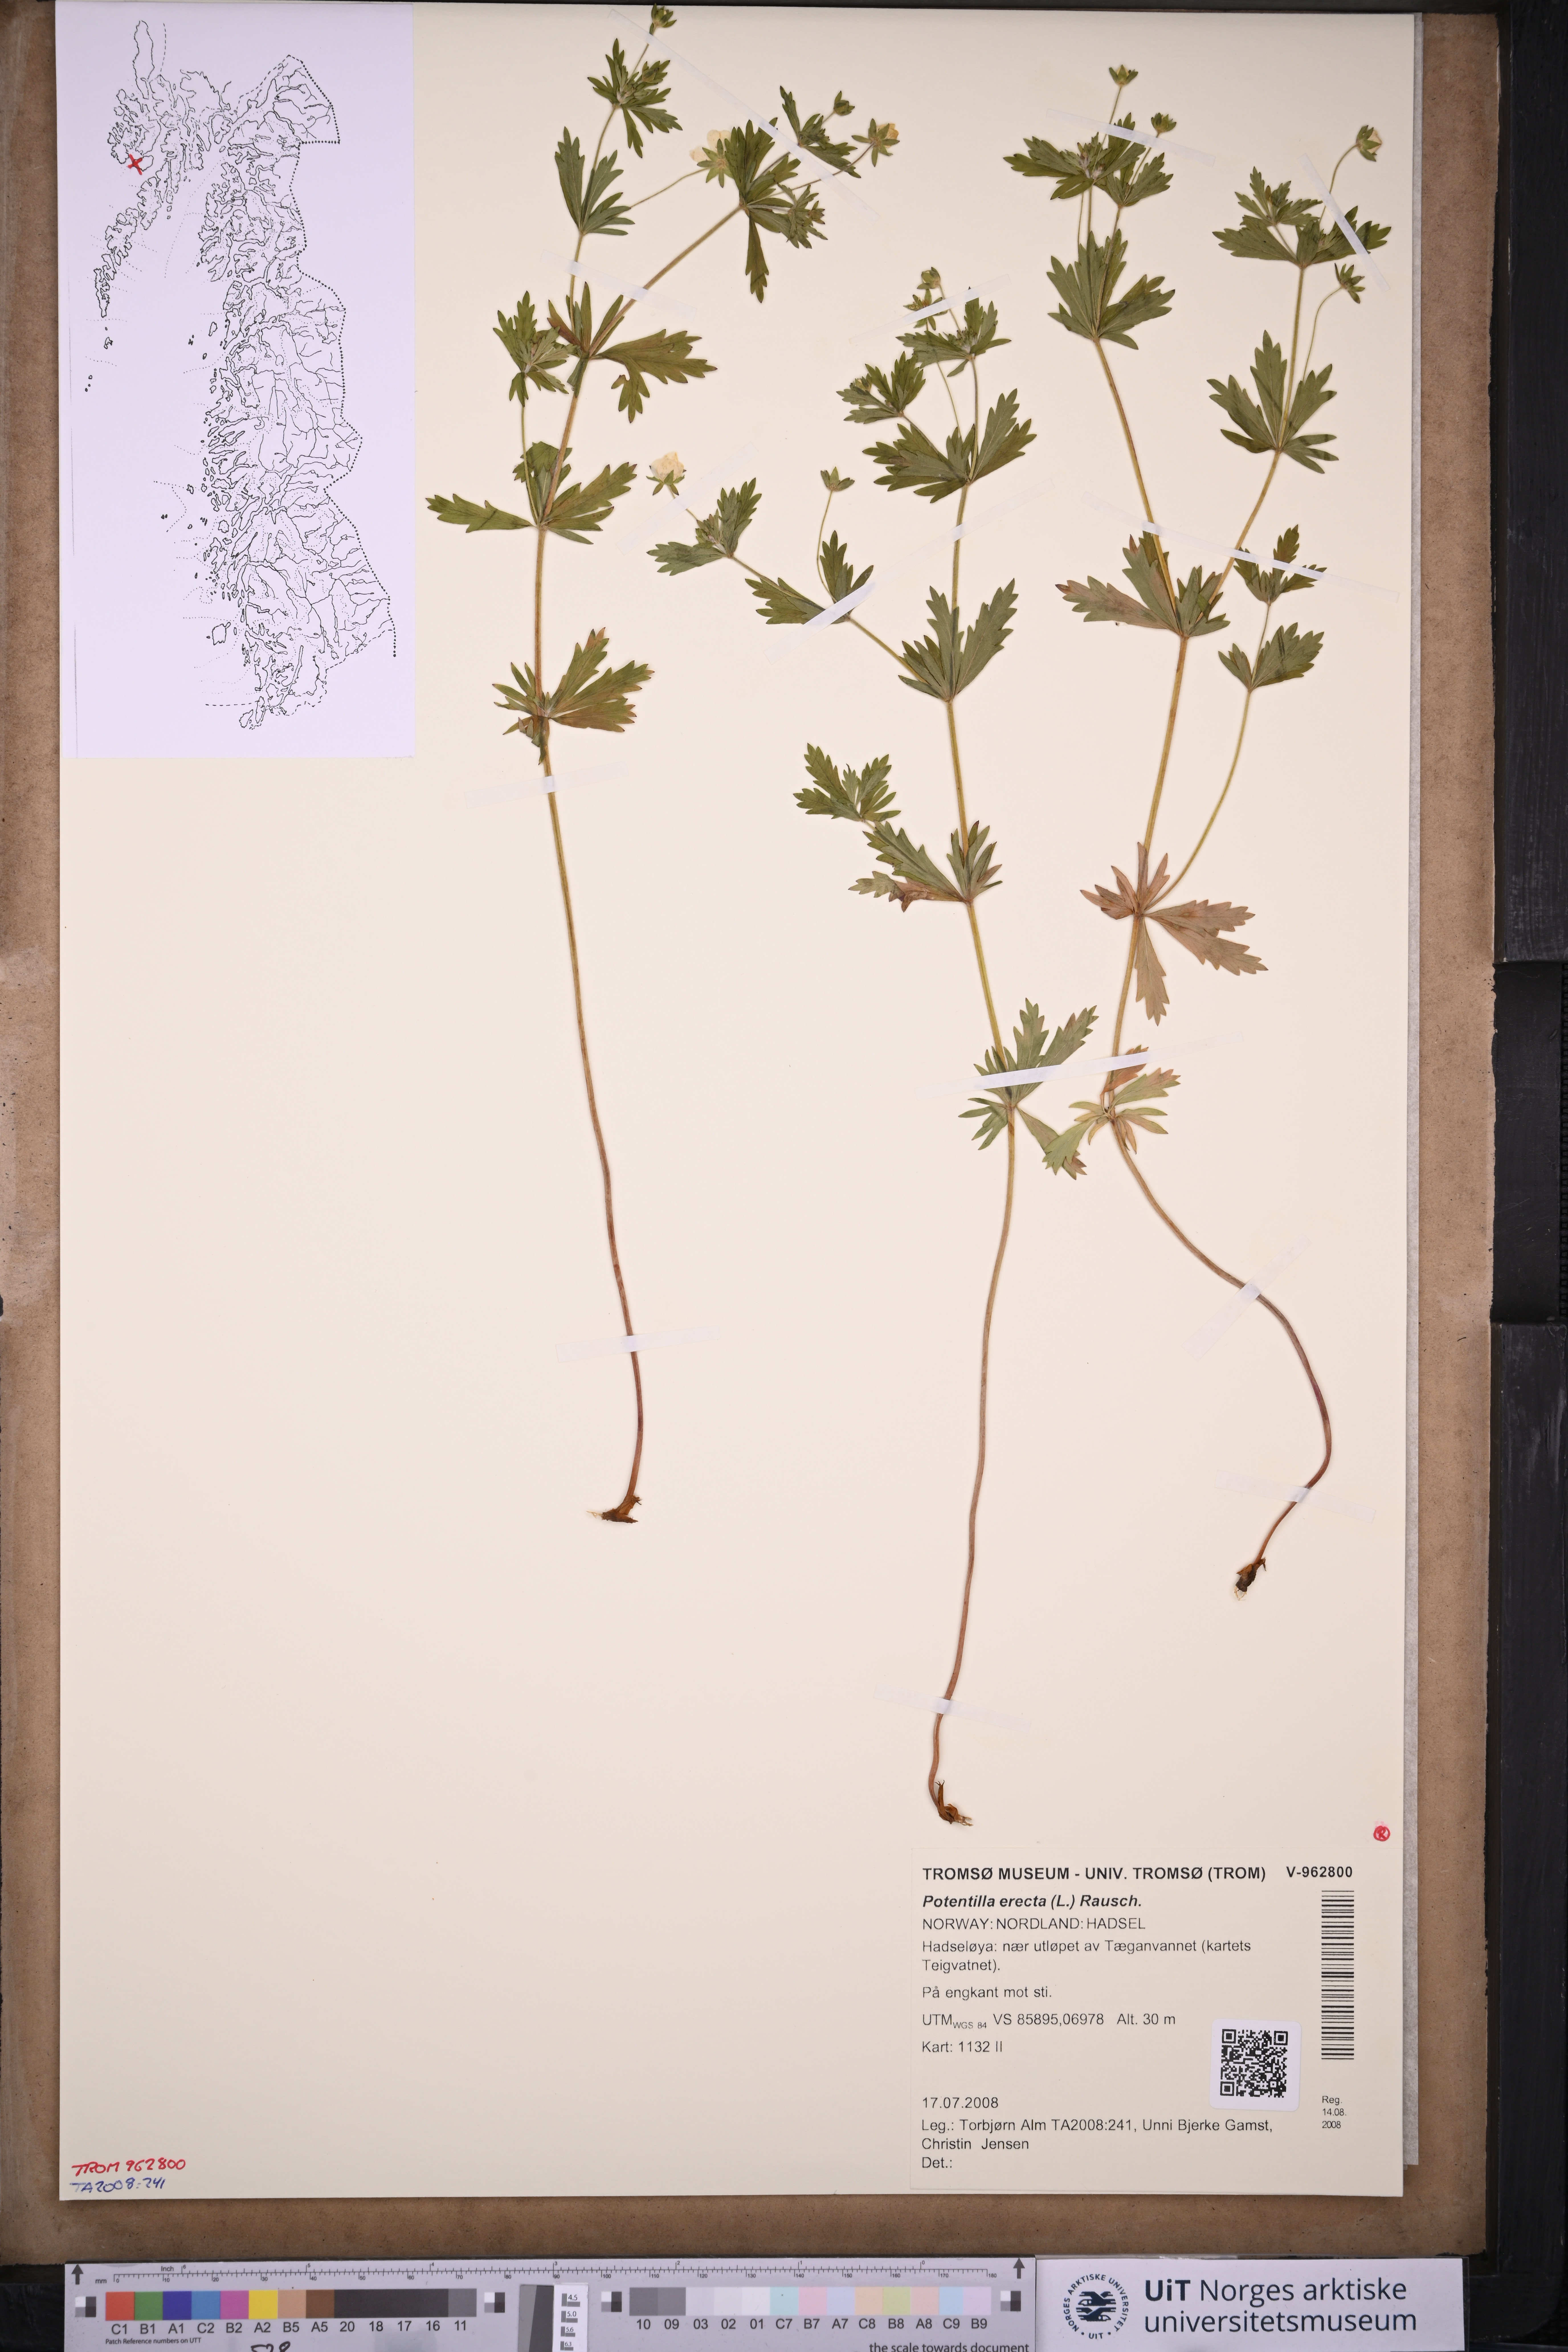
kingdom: Plantae
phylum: Tracheophyta
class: Magnoliopsida
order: Rosales
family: Rosaceae
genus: Potentilla
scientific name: Potentilla erecta
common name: Tormentil
